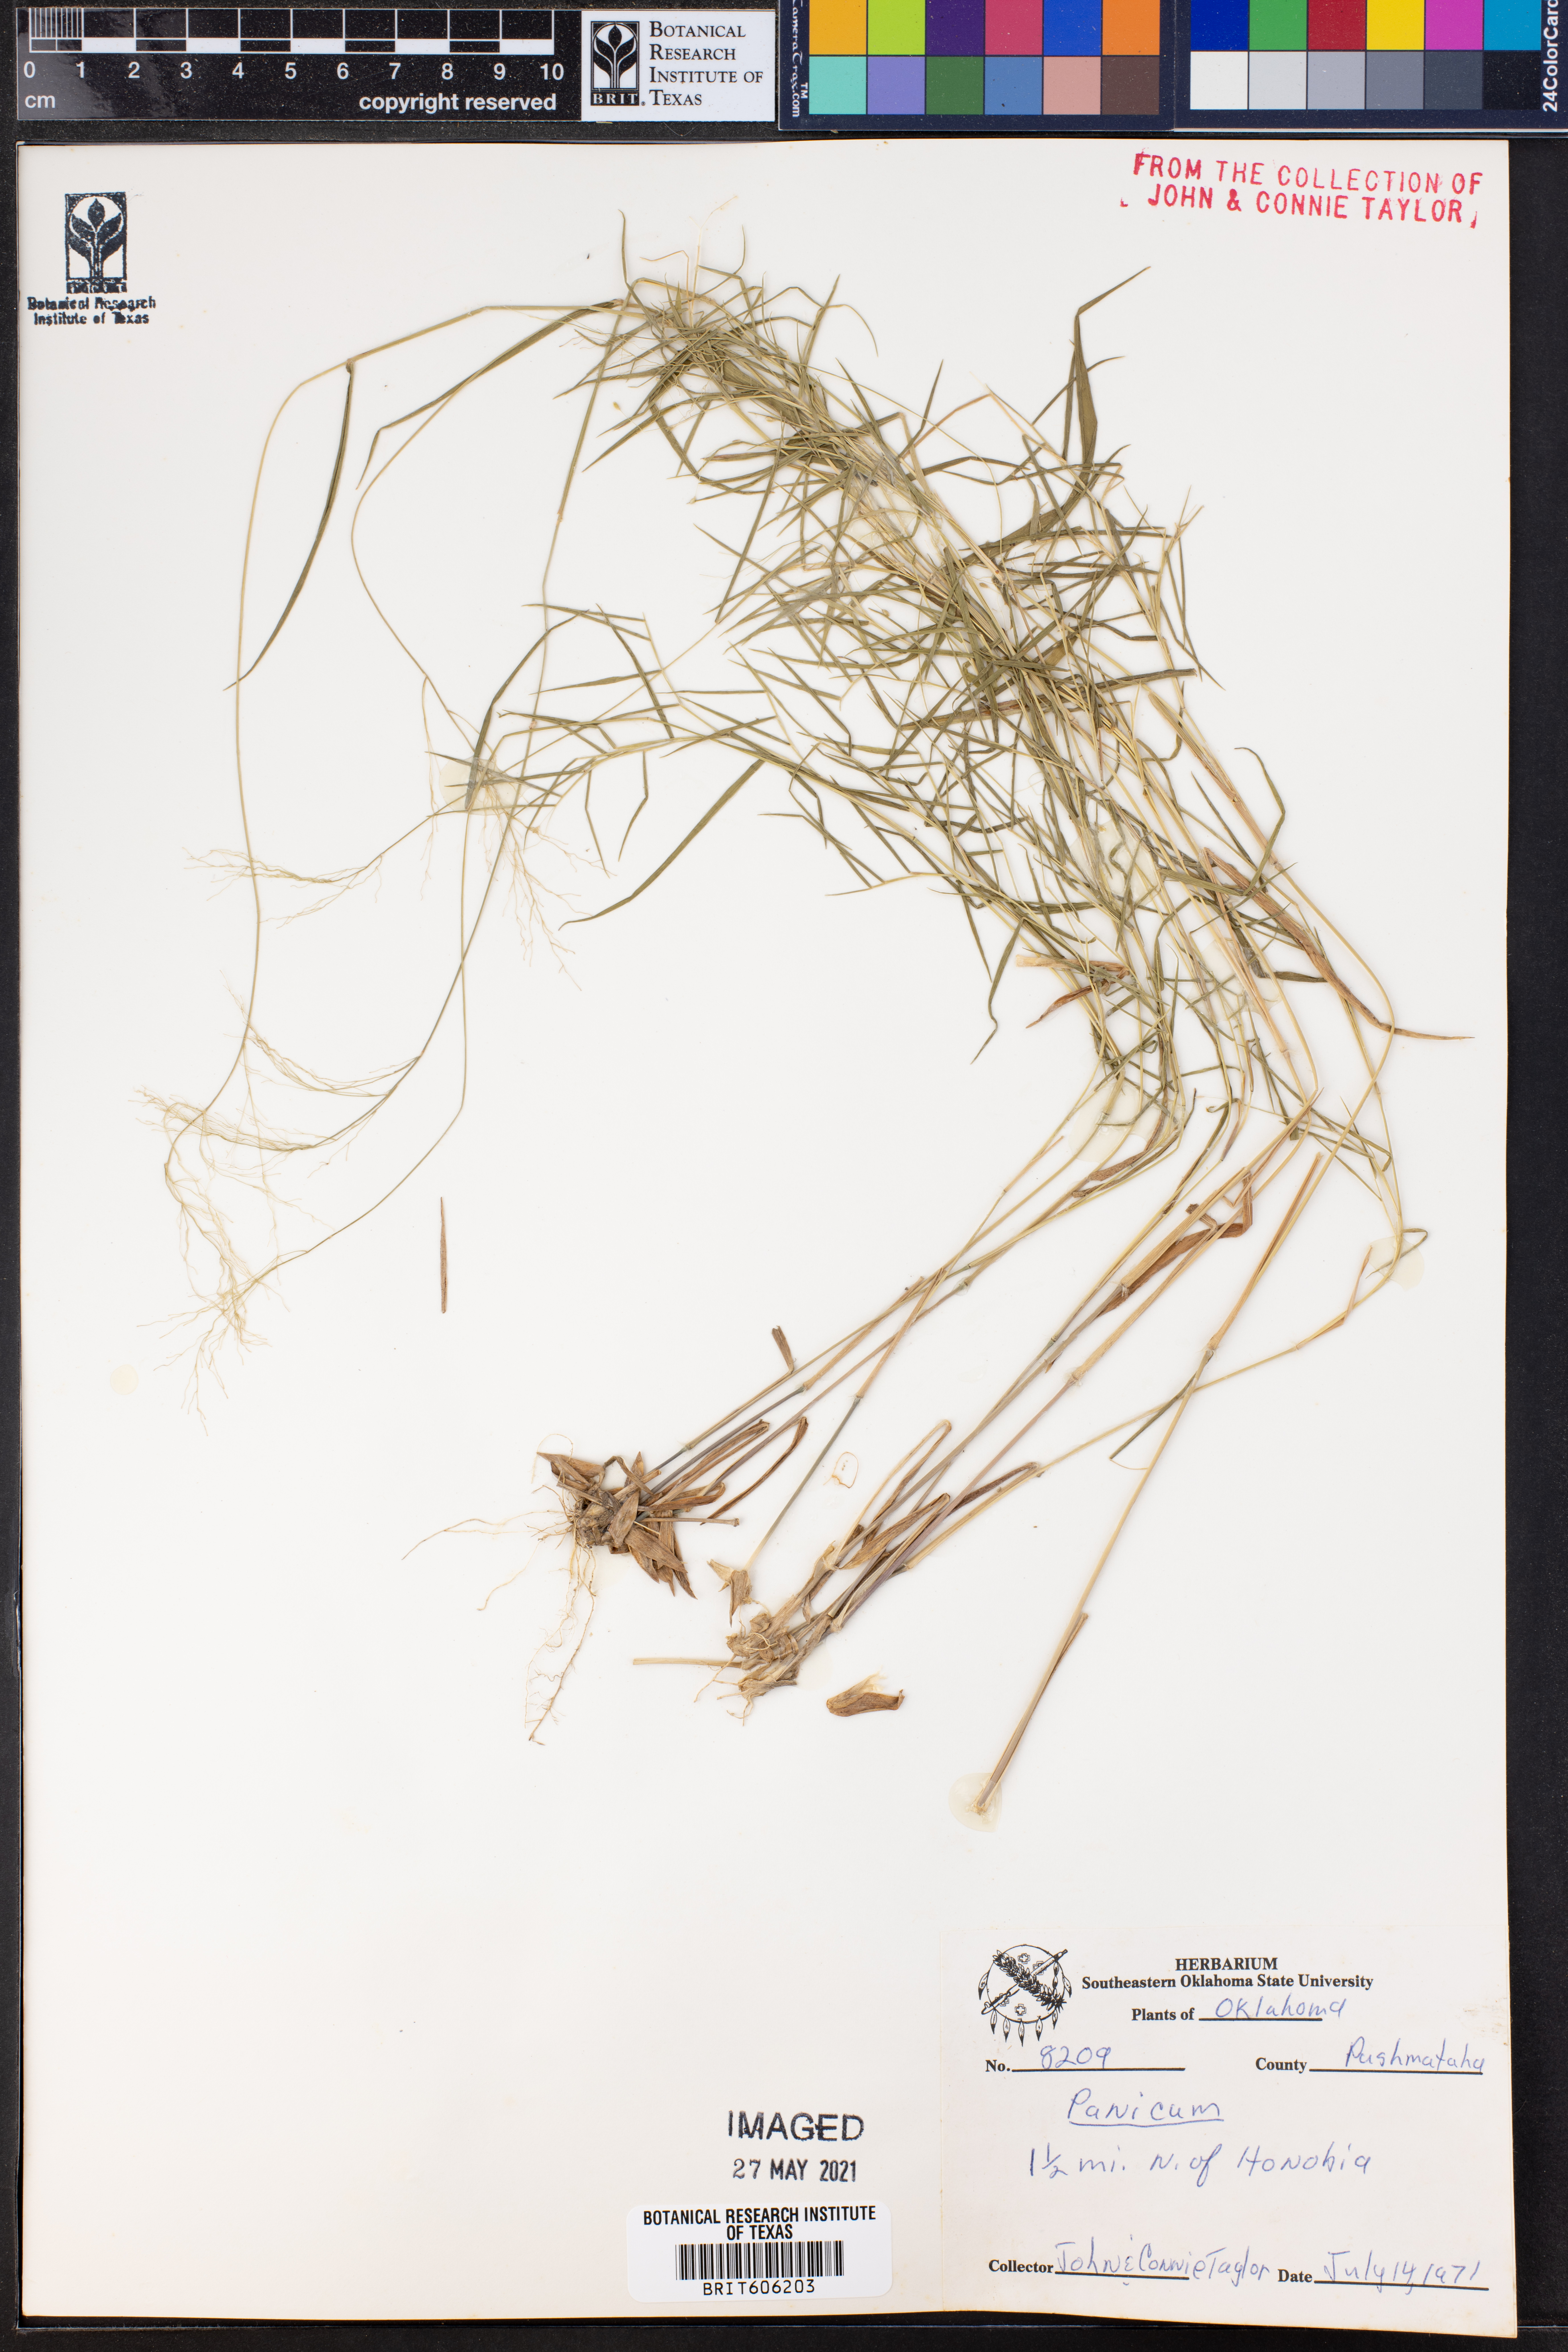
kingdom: Plantae
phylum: Tracheophyta
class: Liliopsida
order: Poales
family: Poaceae
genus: Panicum
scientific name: Panicum
